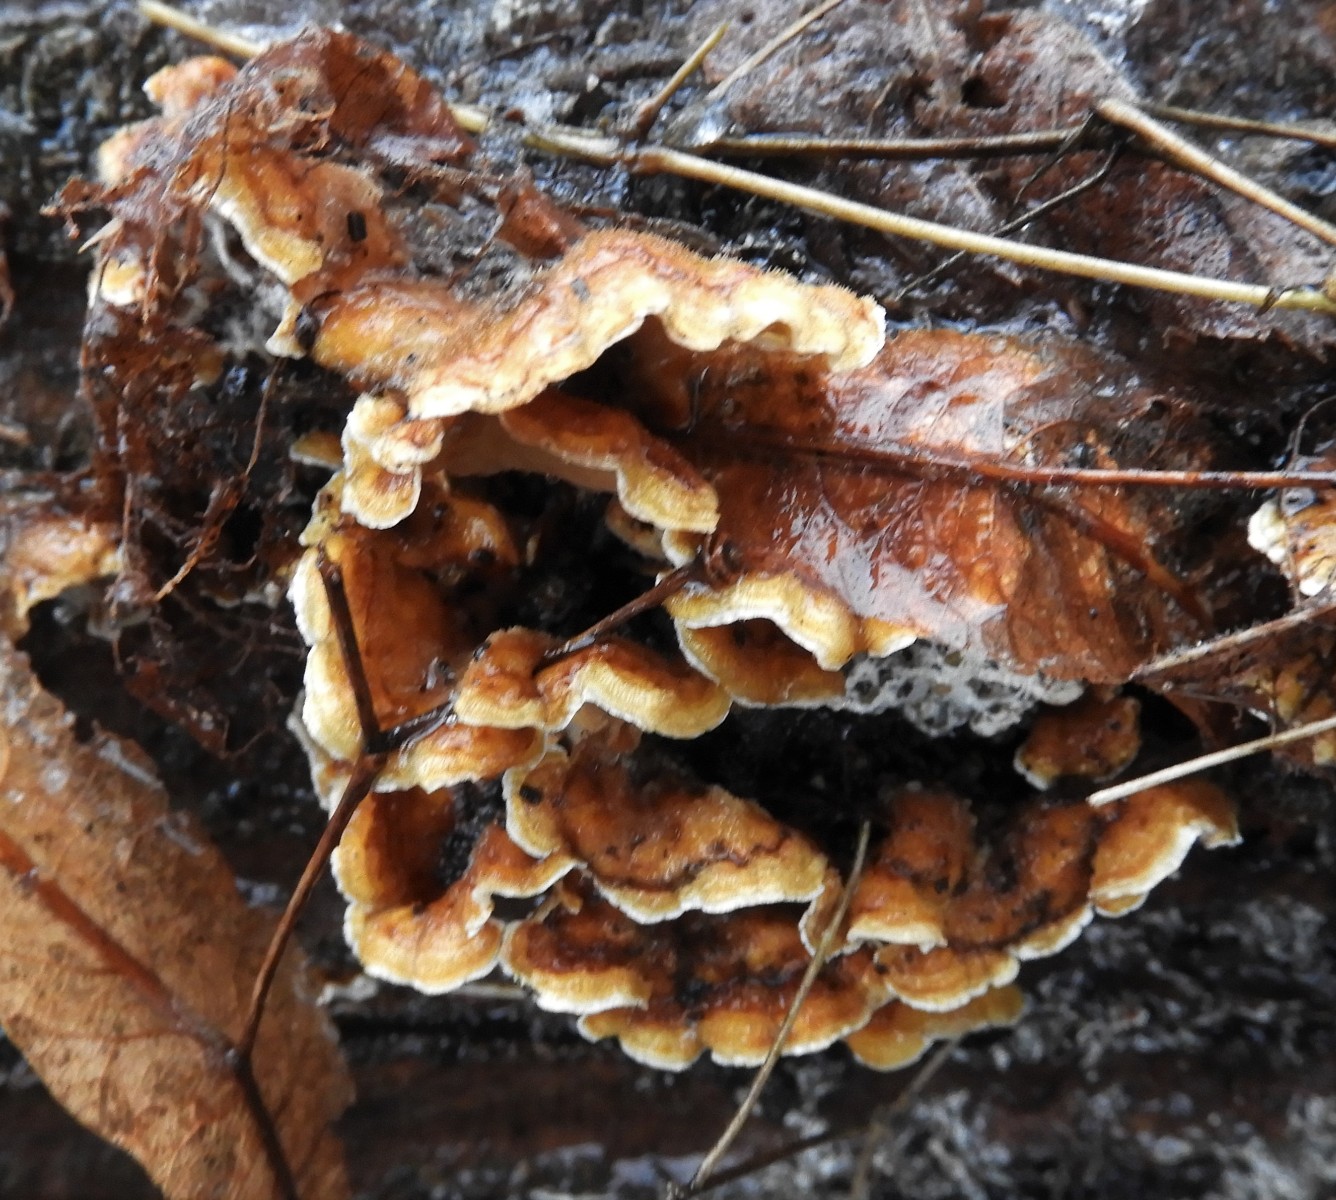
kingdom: Fungi
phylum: Basidiomycota
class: Agaricomycetes
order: Russulales
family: Stereaceae
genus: Stereum
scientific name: Stereum hirsutum
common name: håret lædersvamp
